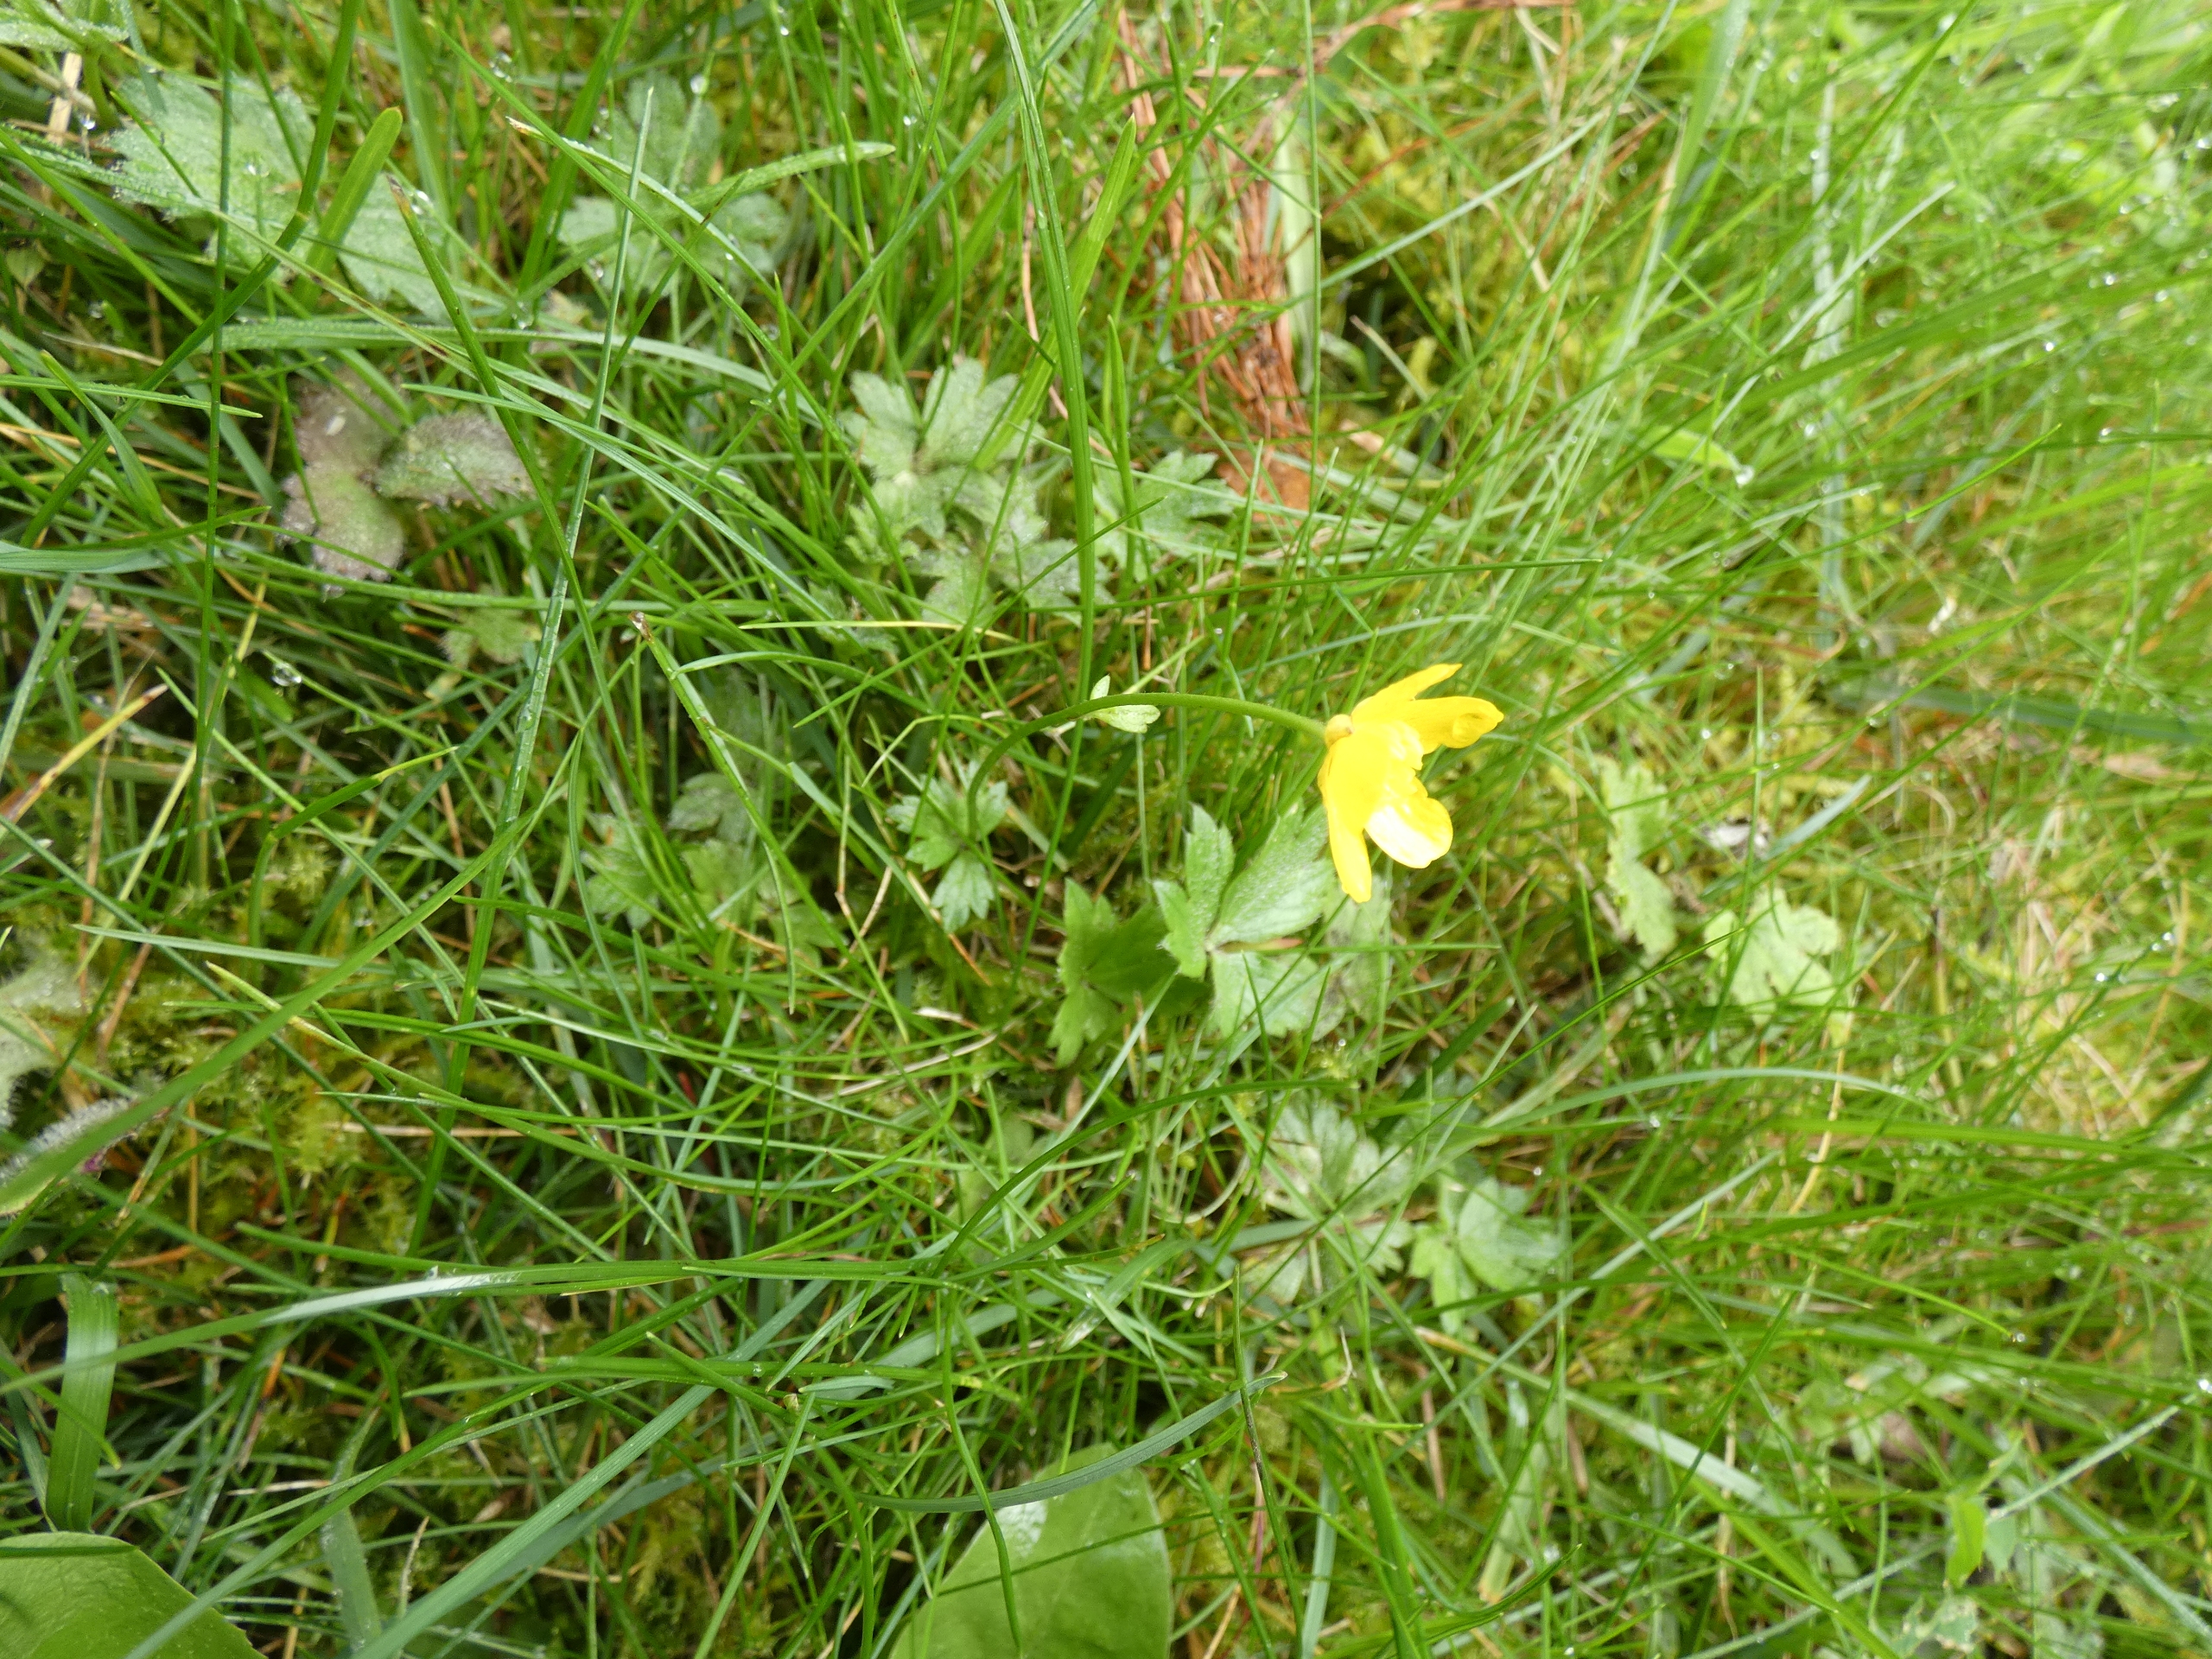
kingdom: Plantae
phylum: Tracheophyta
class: Magnoliopsida
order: Ranunculales
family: Ranunculaceae
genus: Ranunculus
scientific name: Ranunculus repens
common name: Lav ranunkel
